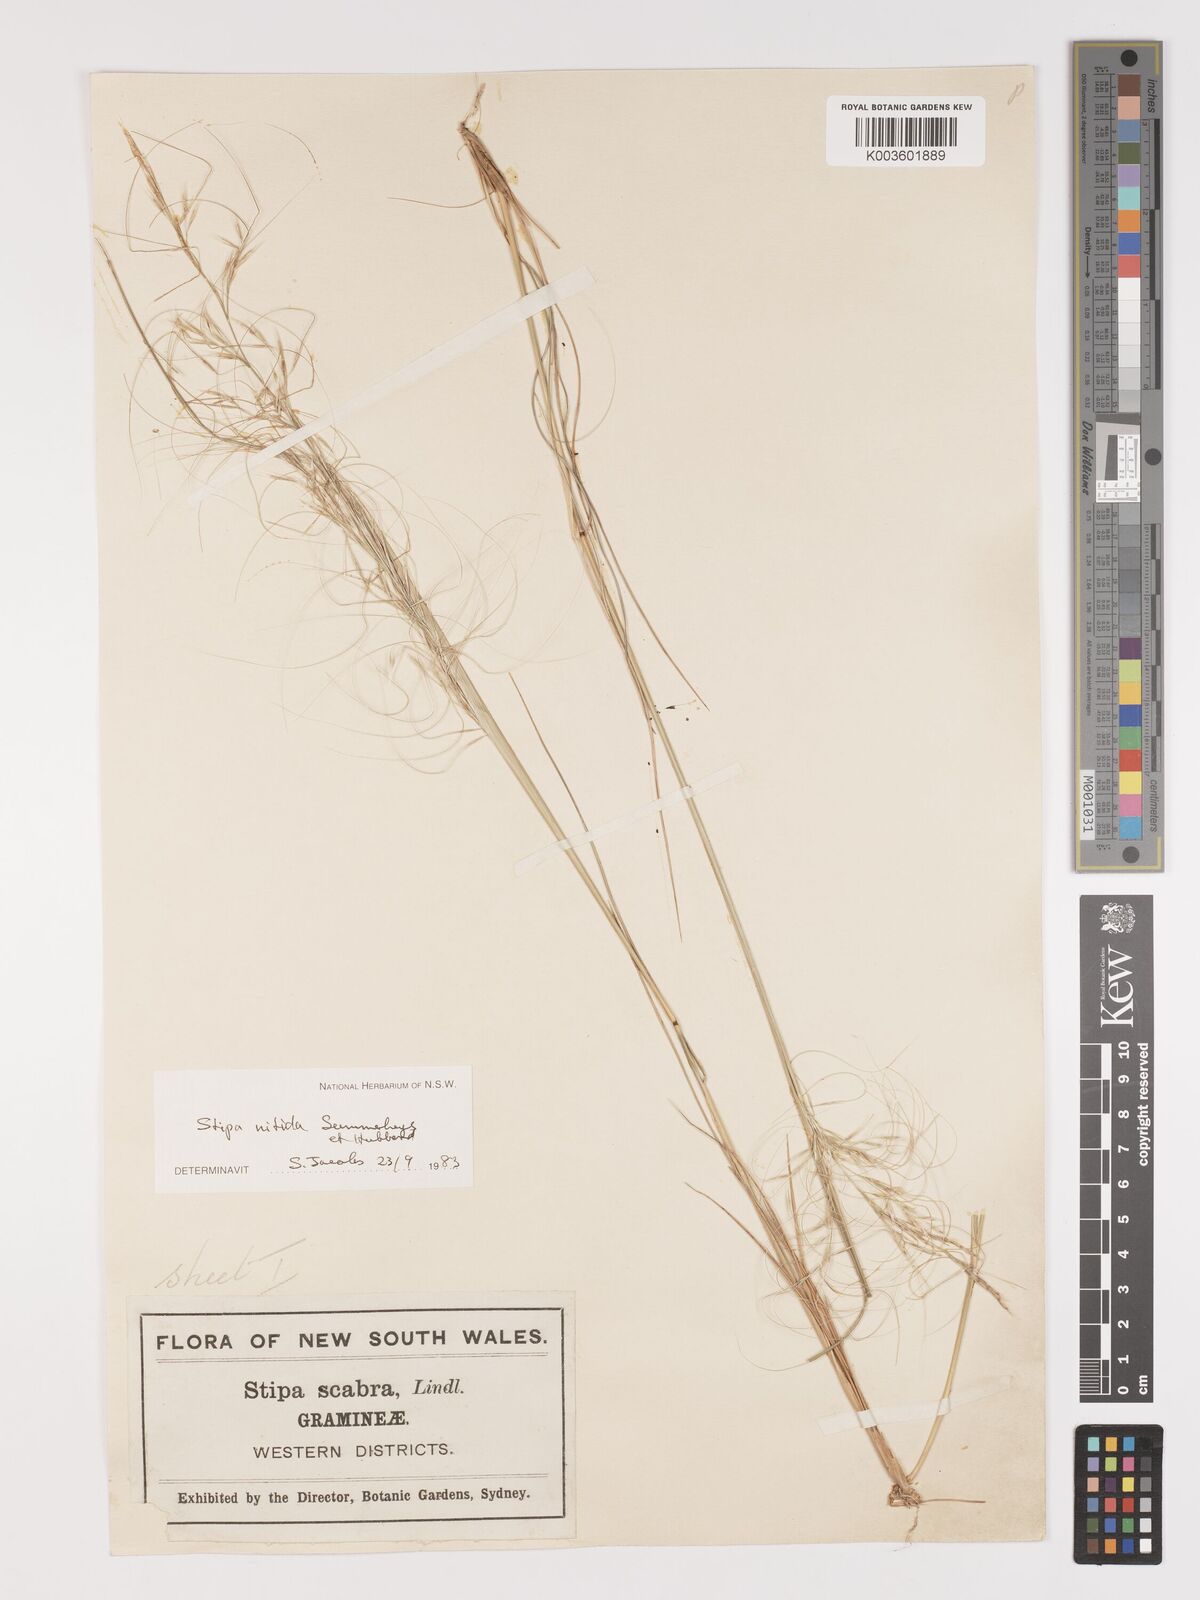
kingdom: Plantae
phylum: Tracheophyta
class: Liliopsida
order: Poales
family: Poaceae
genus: Austrostipa
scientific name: Austrostipa nitida
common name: Balcarra grass
